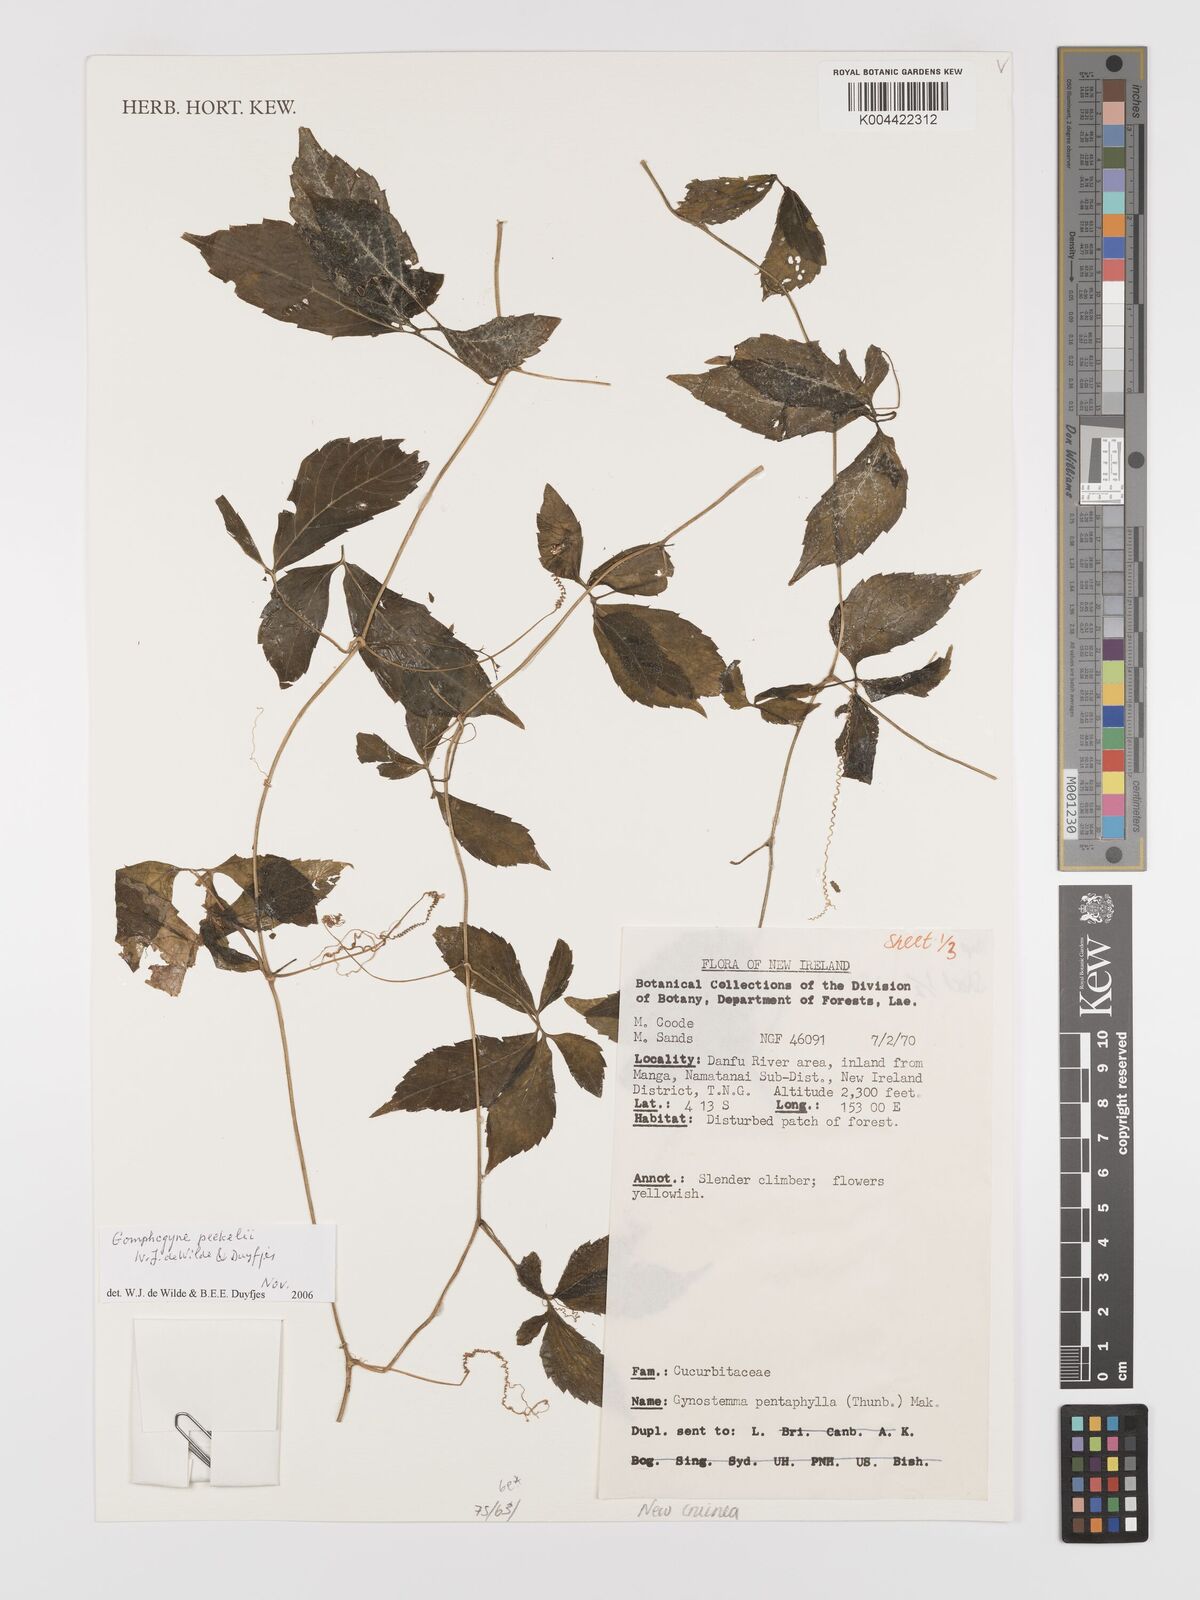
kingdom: Plantae
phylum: Tracheophyta
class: Magnoliopsida
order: Cucurbitales
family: Cucurbitaceae
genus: Hemsleya
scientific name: Hemsleya peekelii
